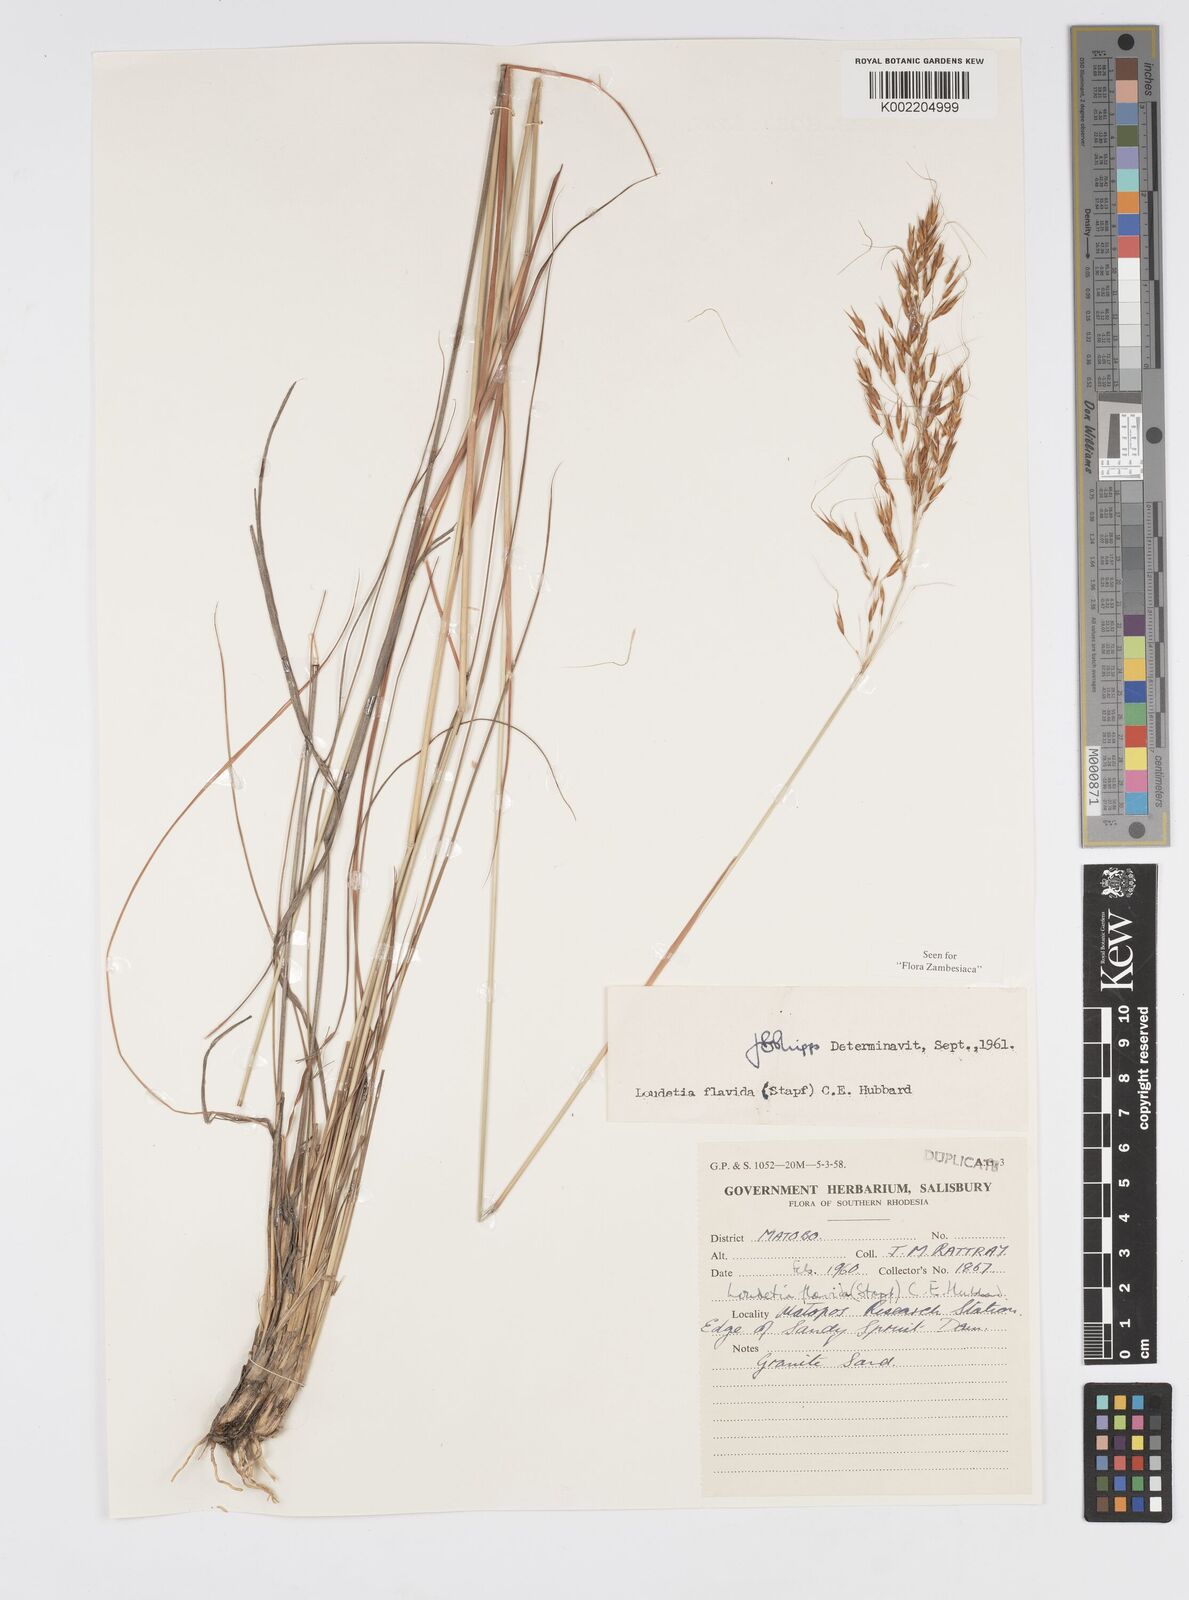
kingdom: Plantae
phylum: Tracheophyta
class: Liliopsida
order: Poales
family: Poaceae
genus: Loudetia
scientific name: Loudetia flavida
